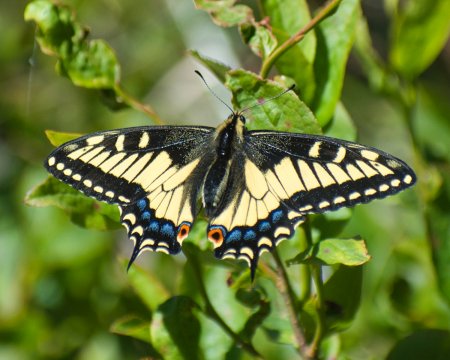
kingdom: Animalia
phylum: Arthropoda
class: Insecta
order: Lepidoptera
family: Papilionidae
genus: Papilio
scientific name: Papilio zelicaon
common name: Anise Swallowtail
